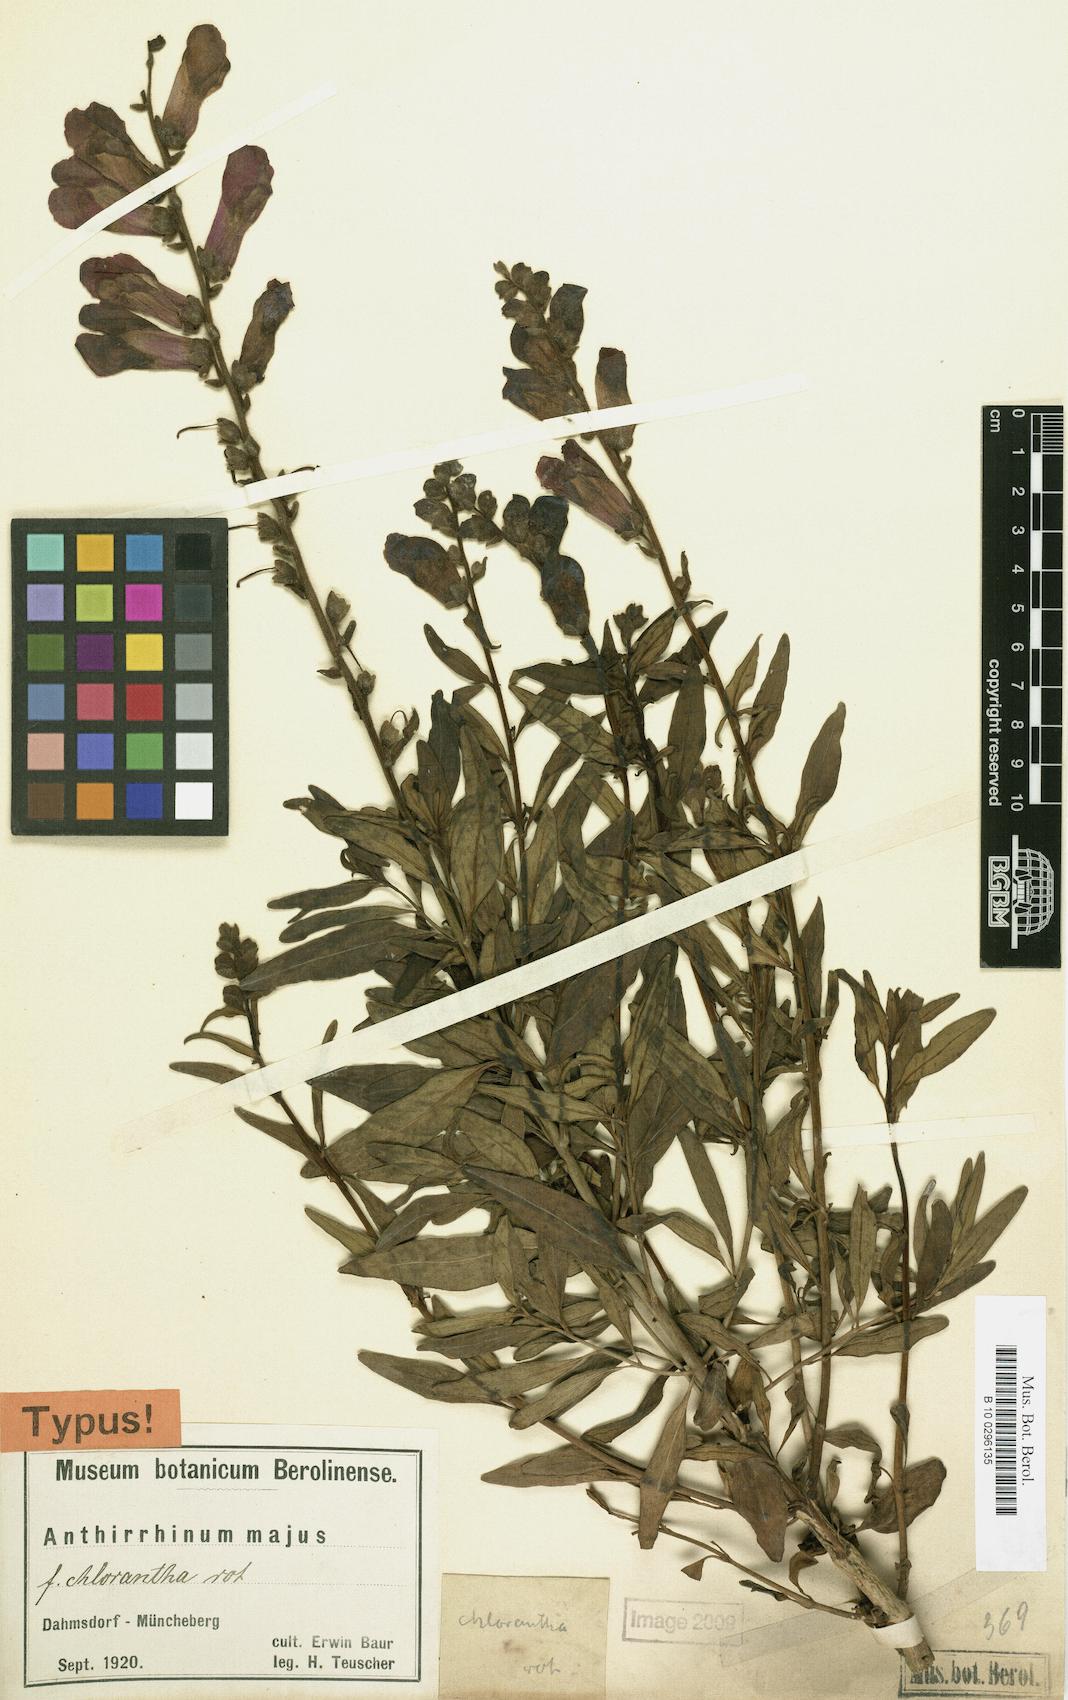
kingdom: Plantae
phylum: Tracheophyta
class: Magnoliopsida
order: Lamiales
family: Plantaginaceae
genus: Antirrhinum
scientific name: Antirrhinum majus
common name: Snapdragon
